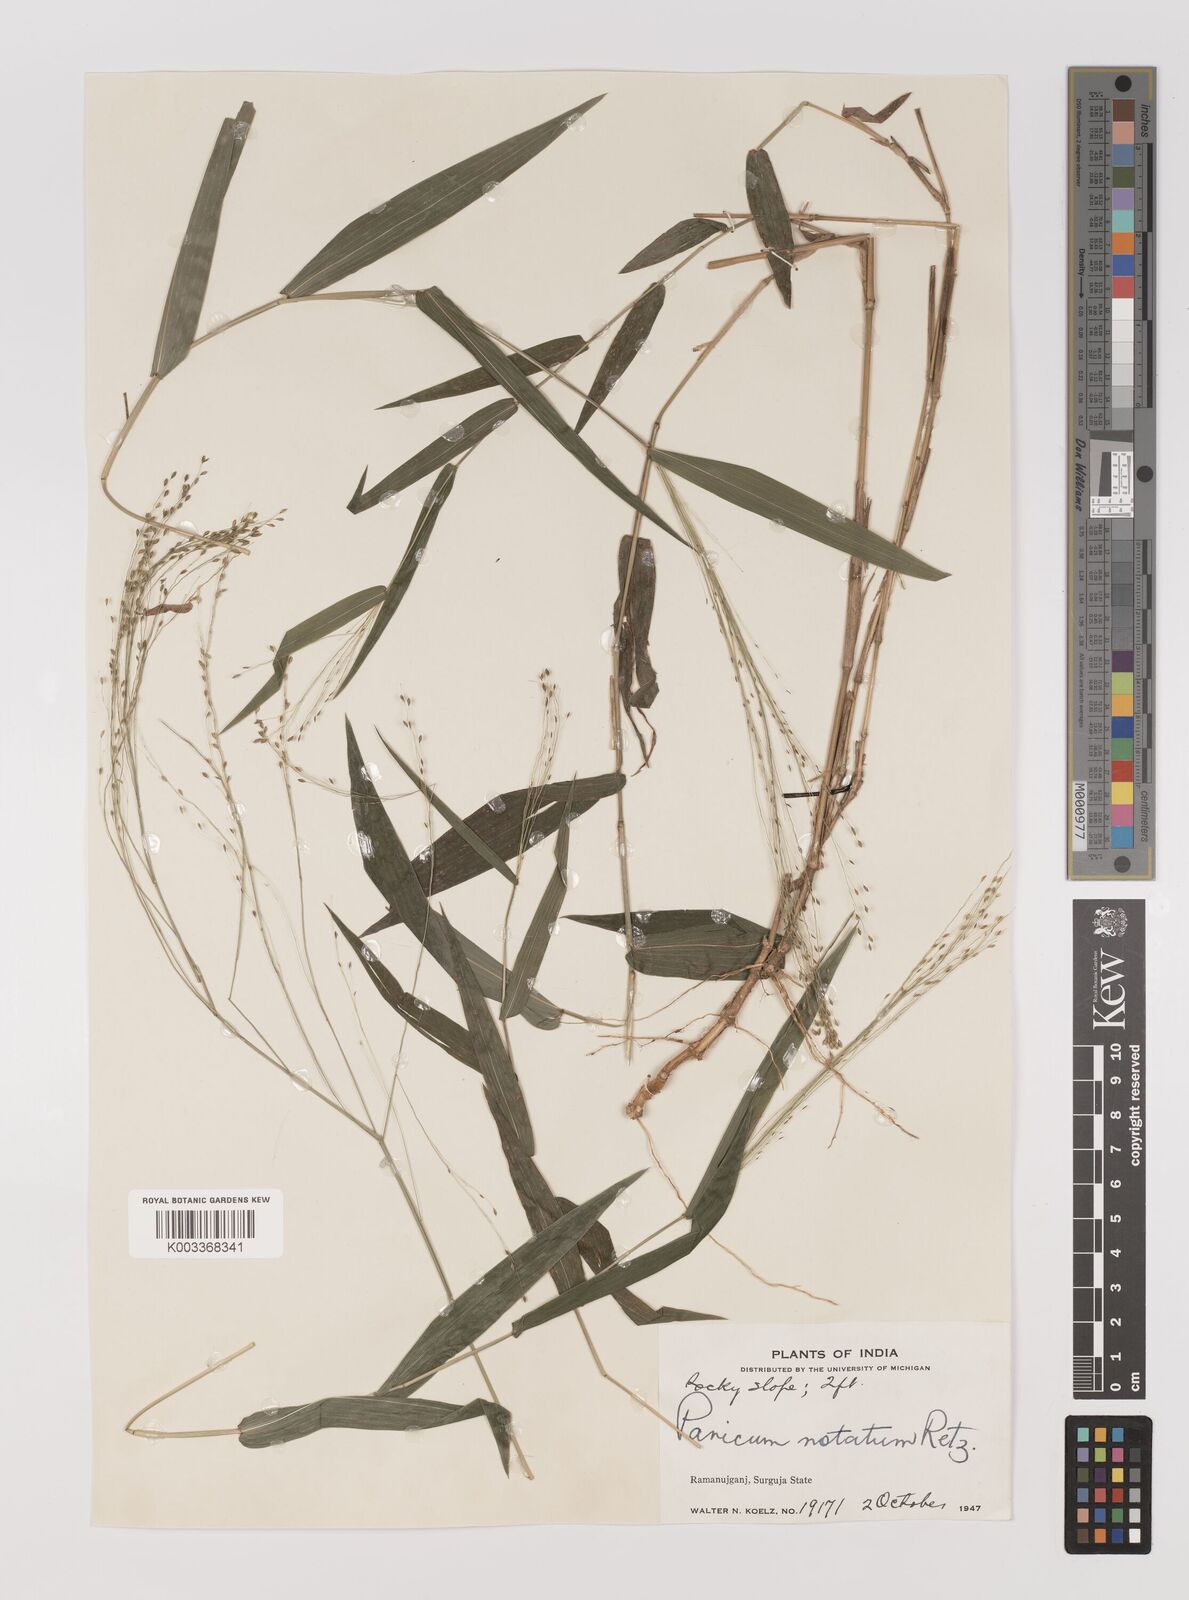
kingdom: Plantae
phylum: Tracheophyta
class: Liliopsida
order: Poales
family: Poaceae
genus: Panicum
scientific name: Panicum notatum
